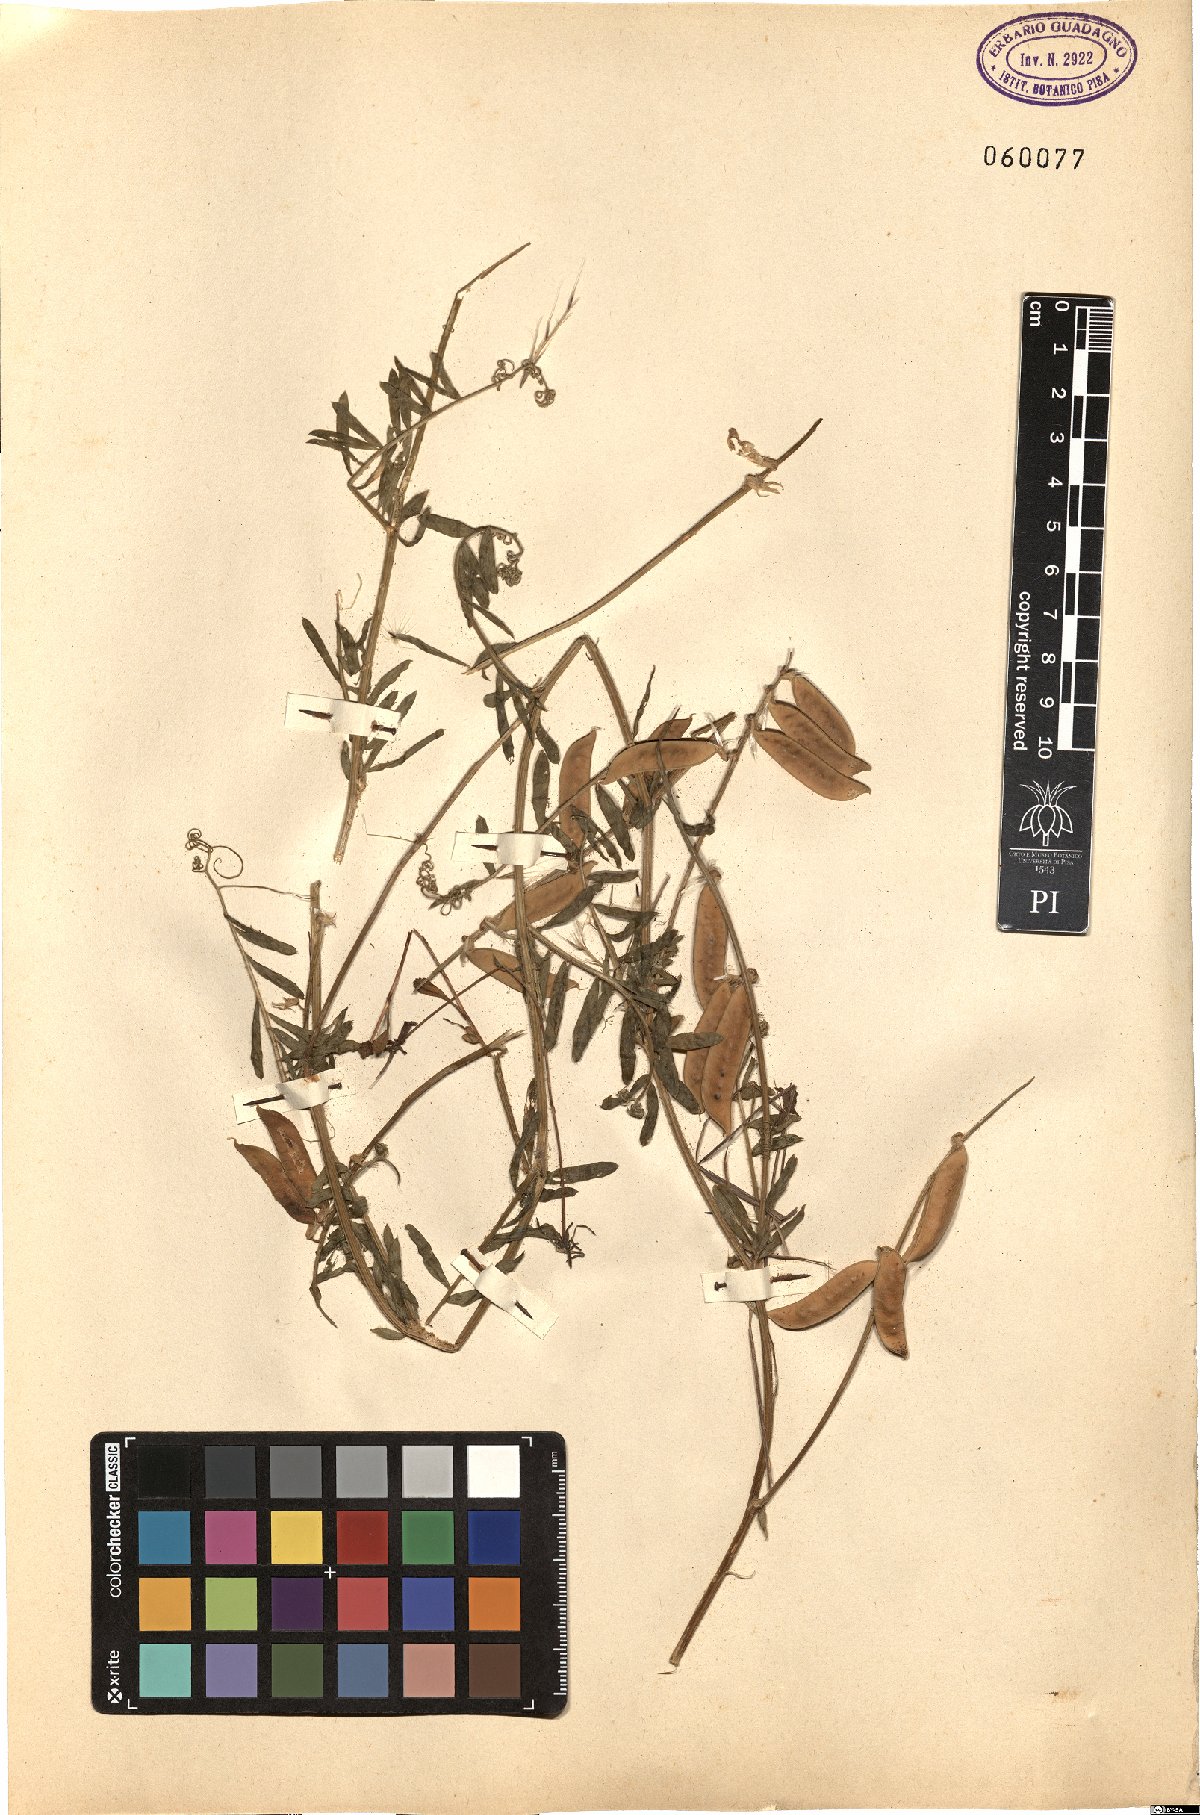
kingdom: Plantae
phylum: Tracheophyta
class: Magnoliopsida
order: Fabales
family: Fabaceae
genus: Vicia
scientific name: Vicia
